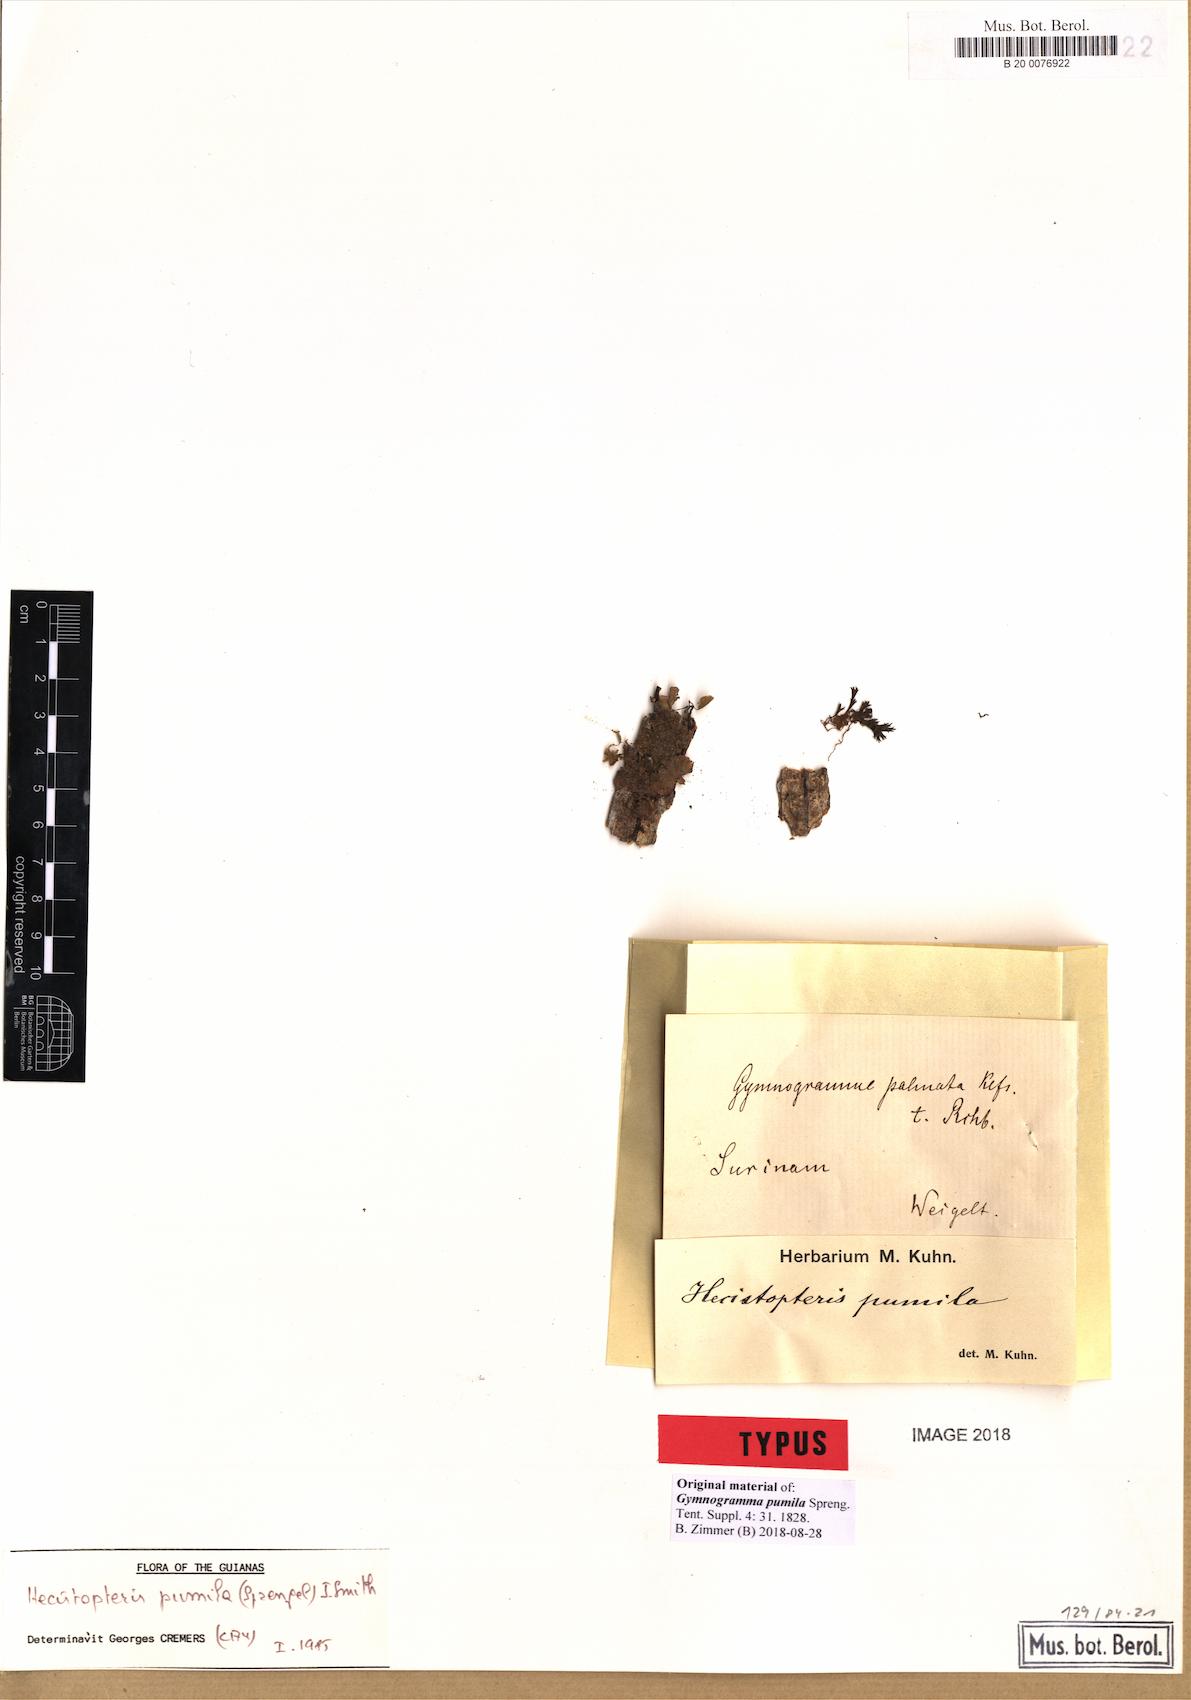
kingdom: Plantae
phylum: Tracheophyta
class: Polypodiopsida
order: Polypodiales
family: Pteridaceae
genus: Hecistopteris
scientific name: Hecistopteris pumila
